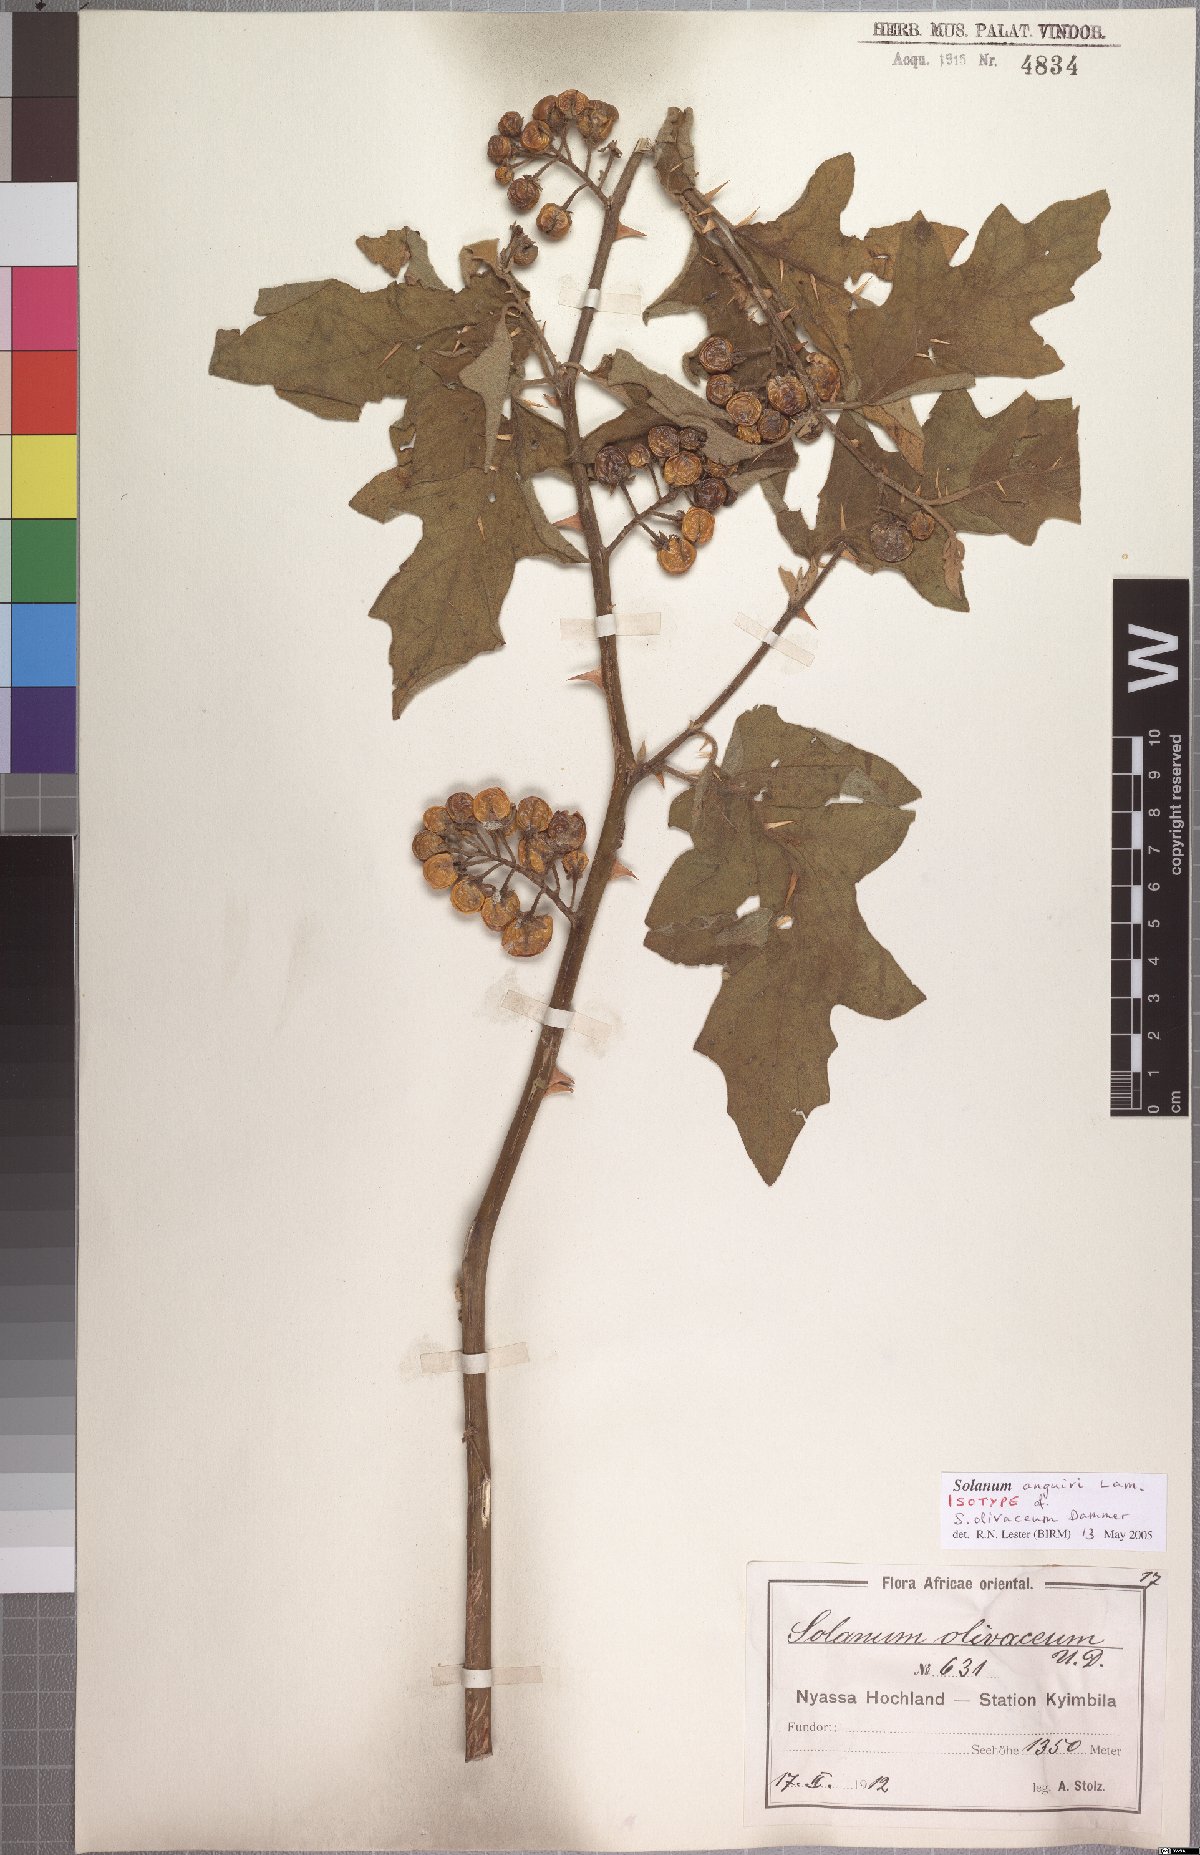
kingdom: Plantae
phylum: Tracheophyta
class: Magnoliopsida
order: Solanales
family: Solanaceae
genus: Solanum
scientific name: Solanum anguivi
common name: Forest bitterberry
